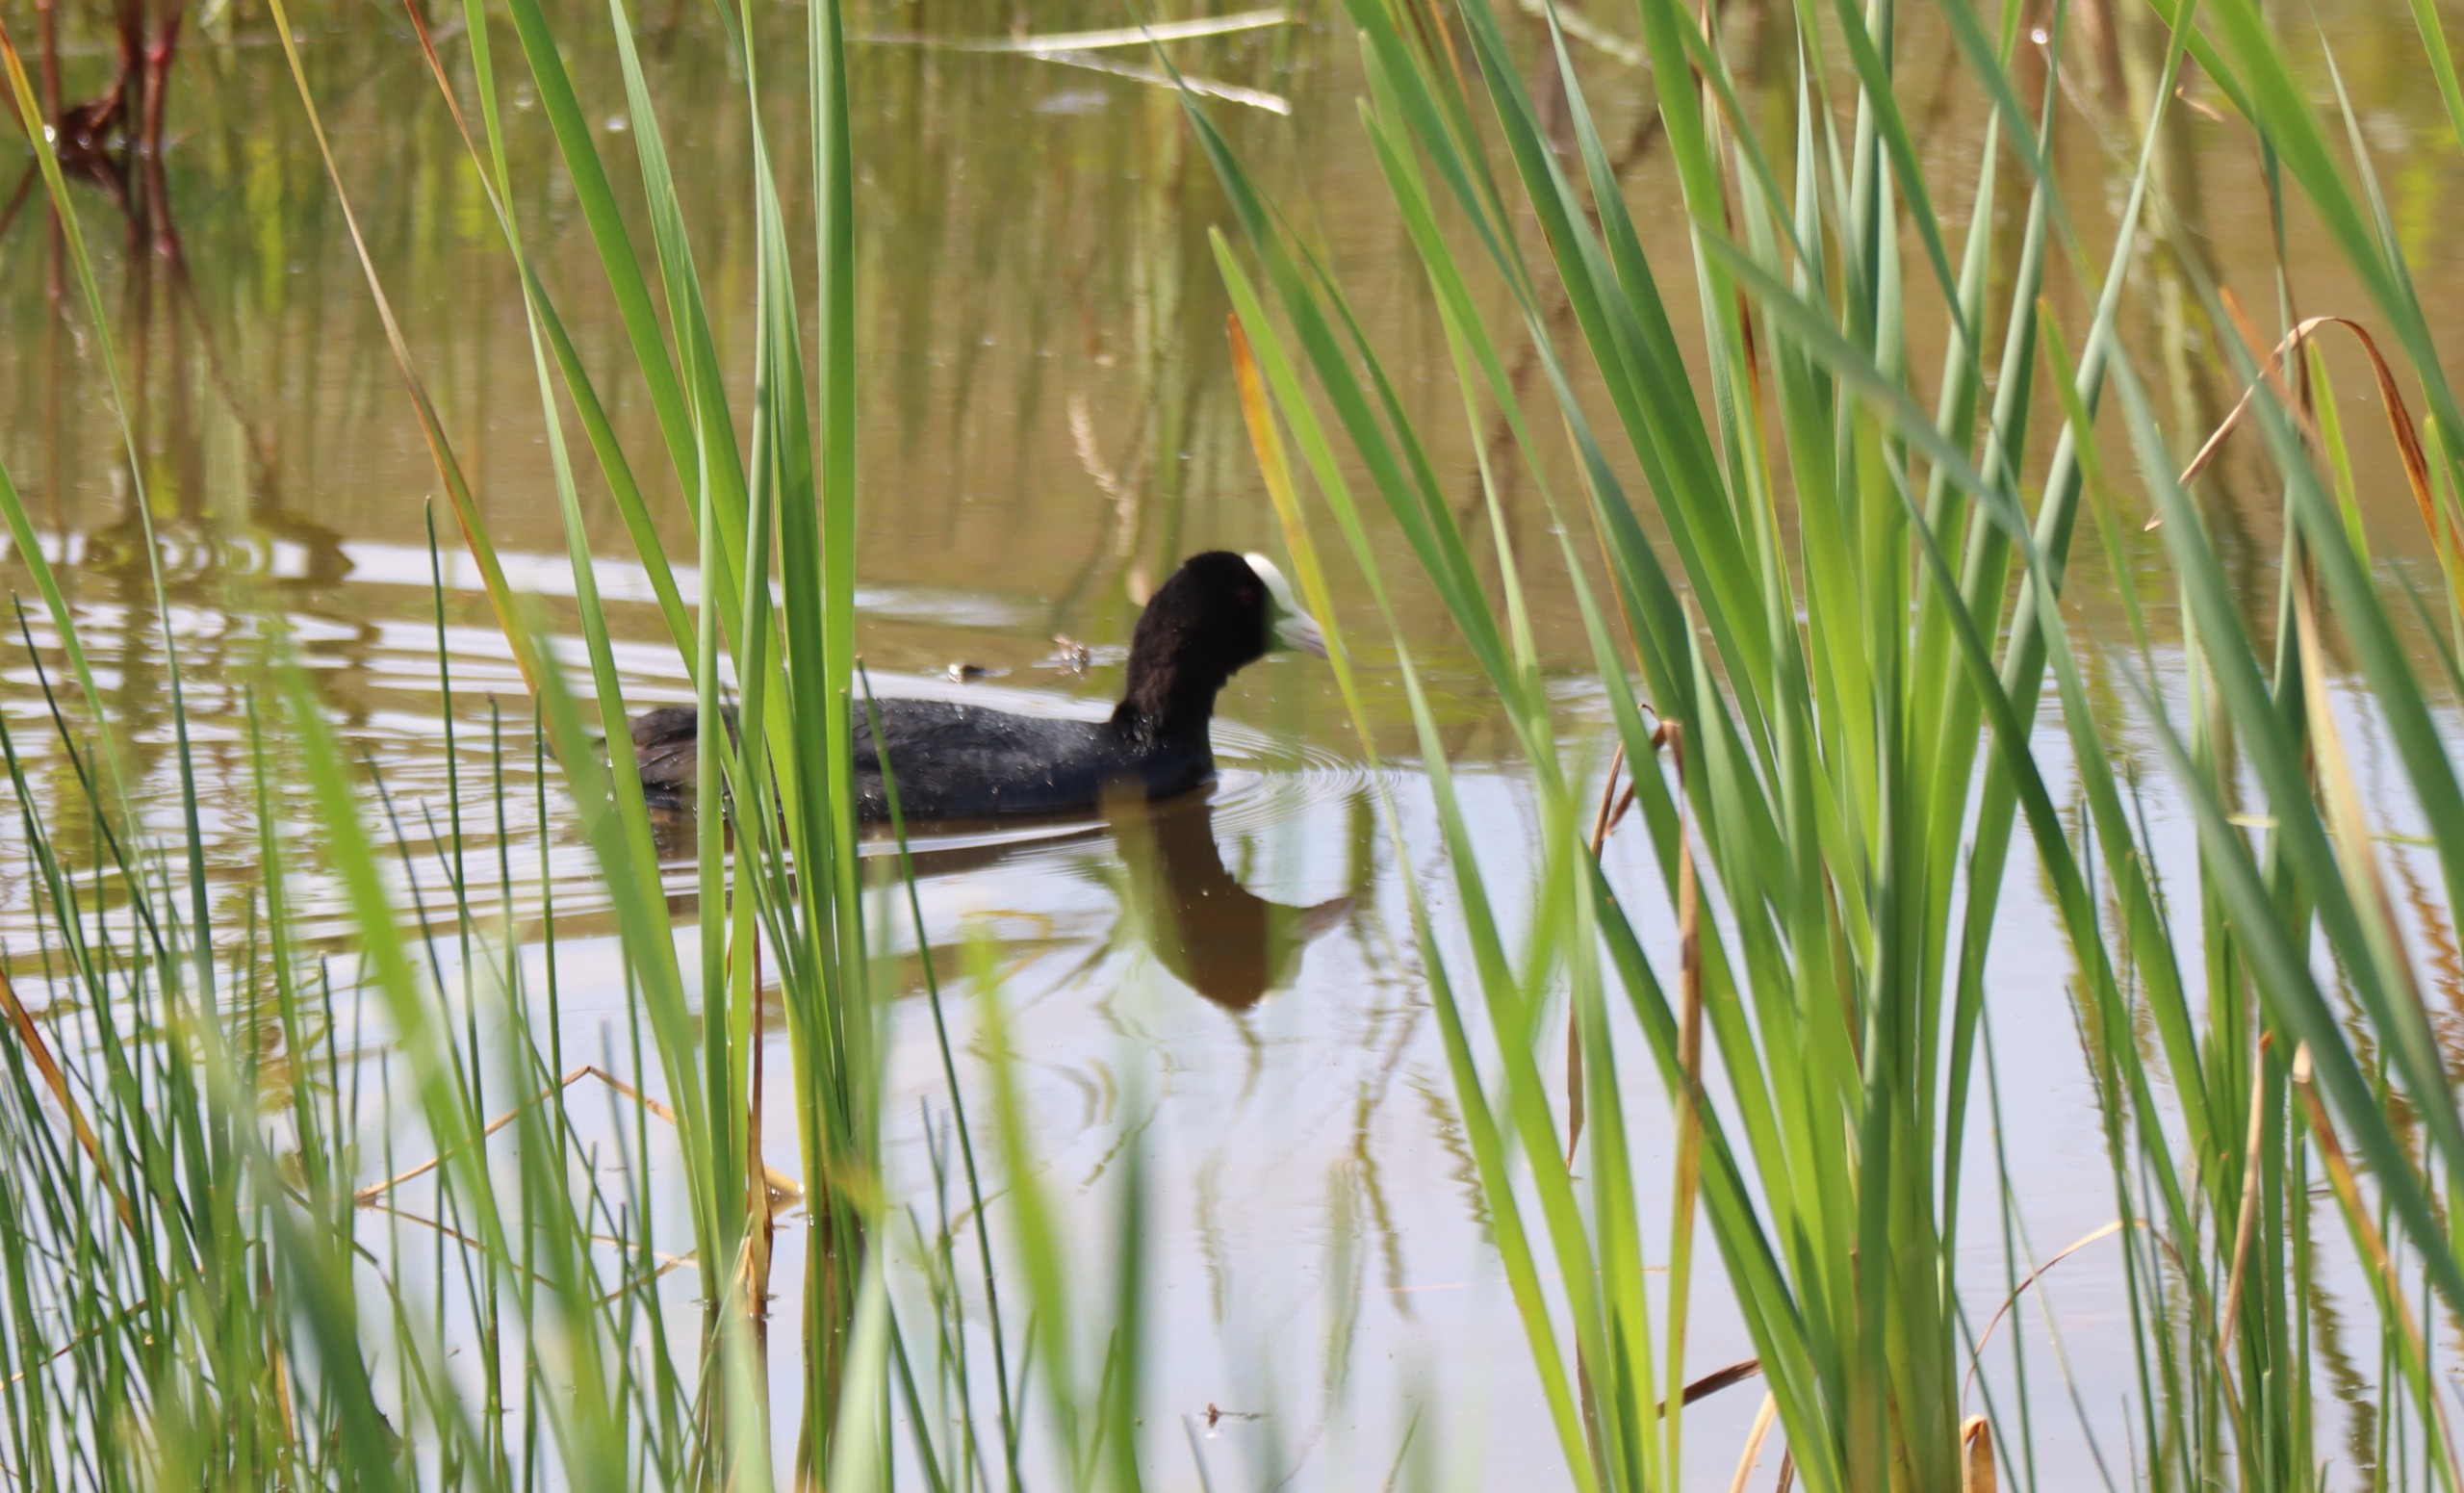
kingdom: Animalia
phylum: Chordata
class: Aves
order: Gruiformes
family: Rallidae
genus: Fulica
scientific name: Fulica atra
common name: Blishøne
